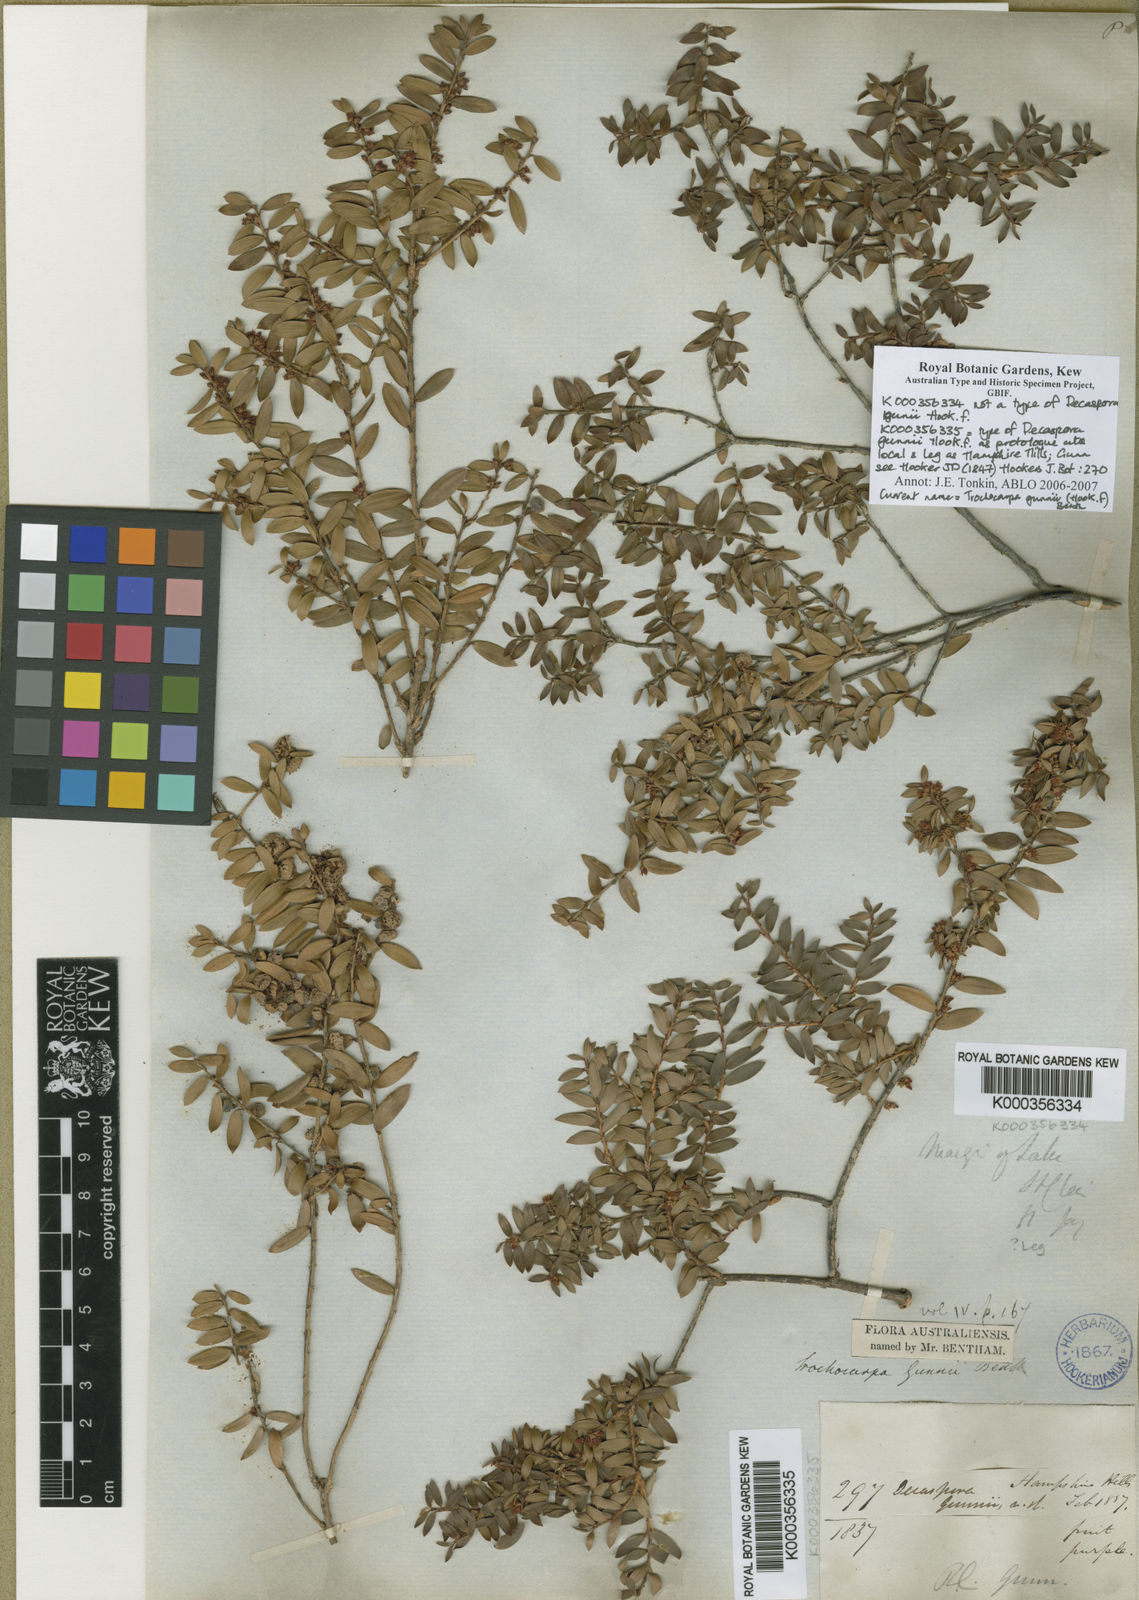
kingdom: Plantae
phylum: Tracheophyta
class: Magnoliopsida
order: Ericales
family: Ericaceae
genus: Trochocarpa
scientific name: Trochocarpa gunnii
